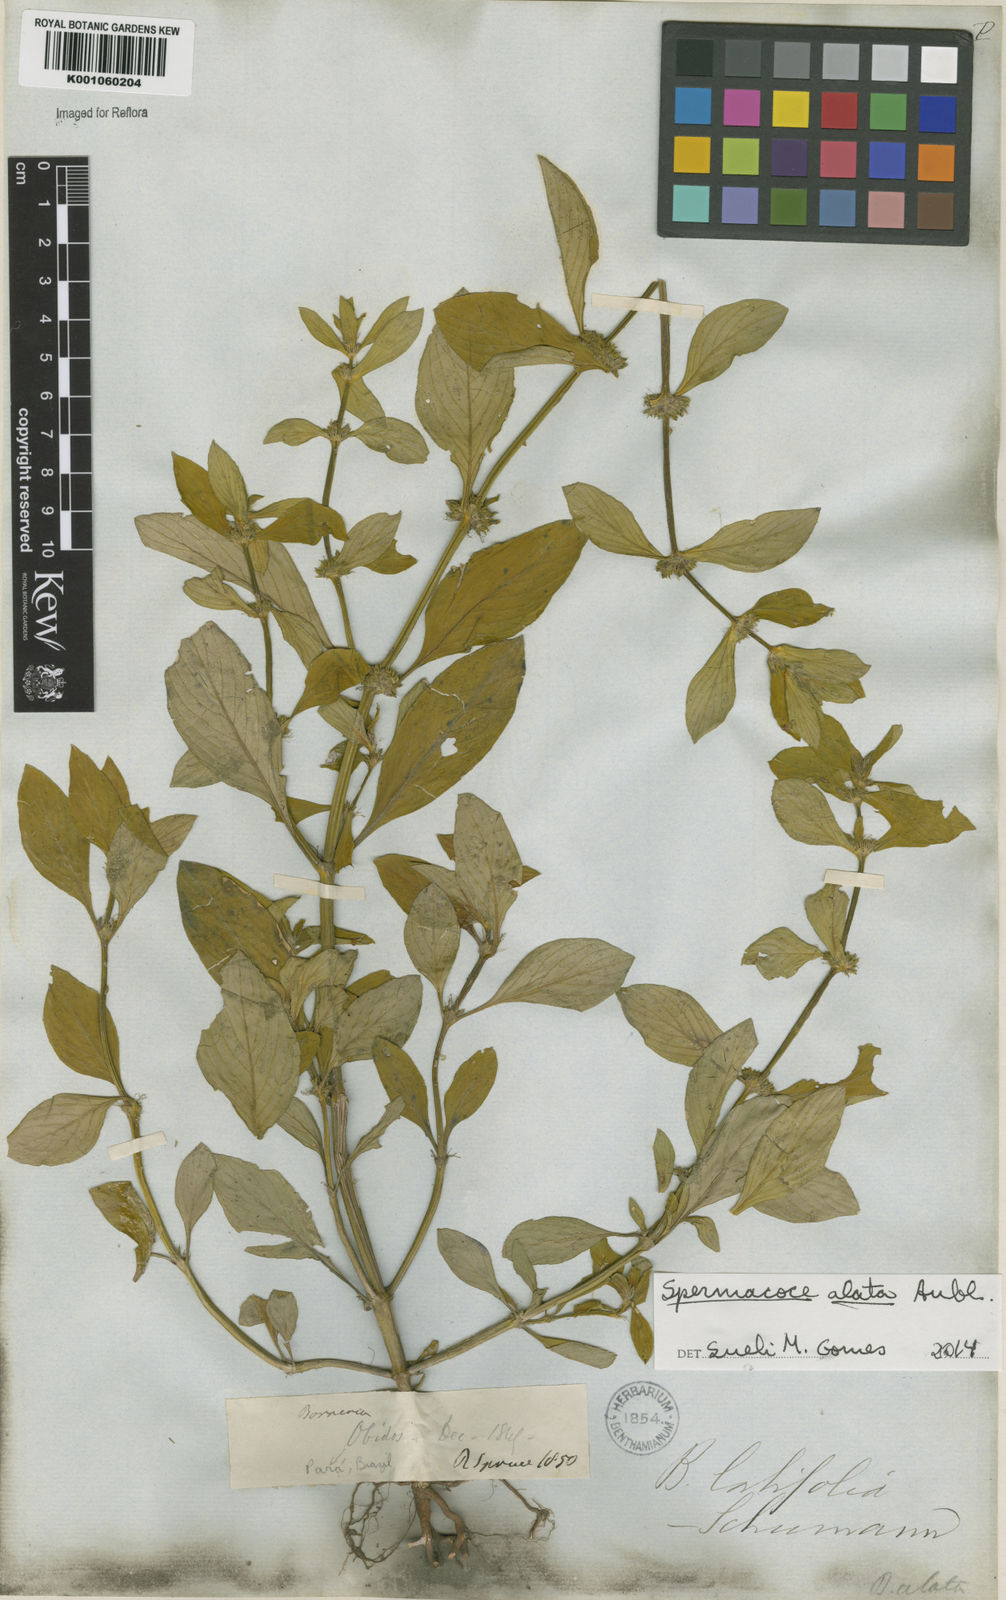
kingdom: Plantae
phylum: Tracheophyta
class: Magnoliopsida
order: Gentianales
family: Rubiaceae
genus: Spermacoce
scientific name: Spermacoce
